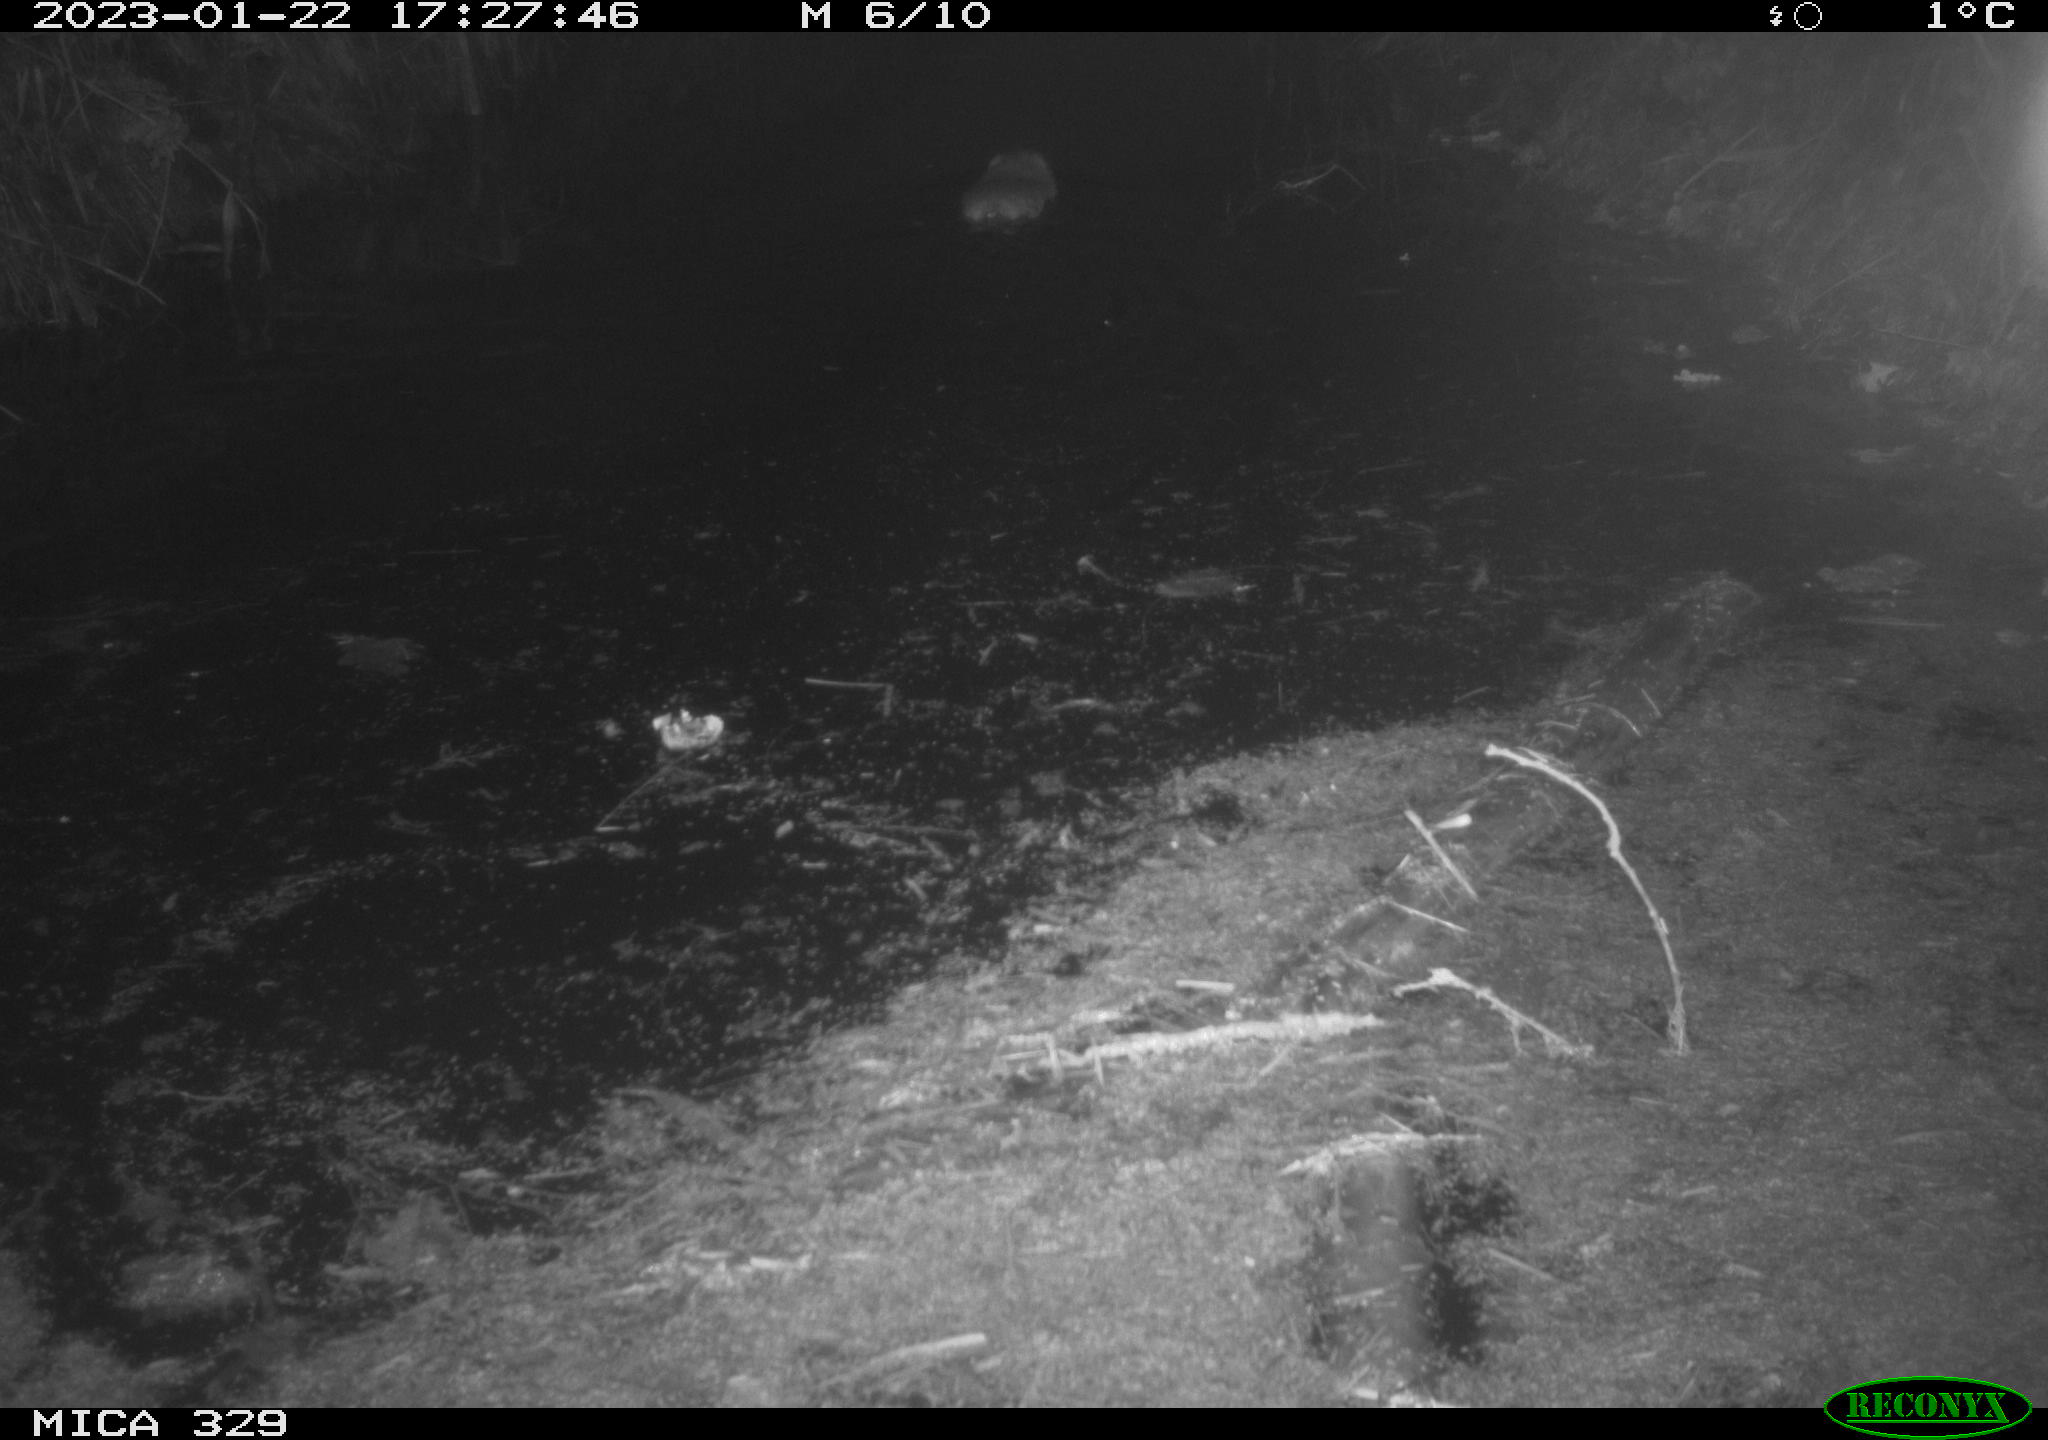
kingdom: Animalia
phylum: Chordata
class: Mammalia
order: Rodentia
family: Cricetidae
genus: Ondatra
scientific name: Ondatra zibethicus
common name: Muskrat
